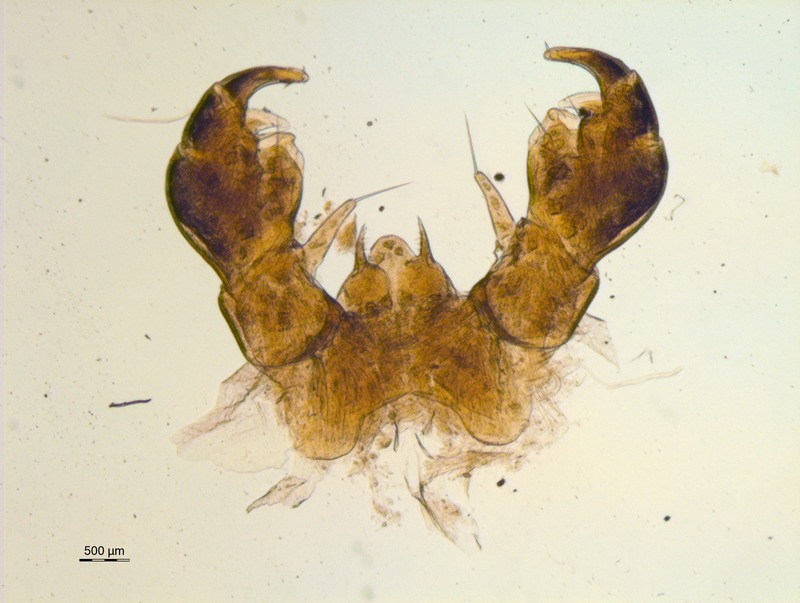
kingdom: Animalia
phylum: Arthropoda
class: Diplopoda
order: Glomerida
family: Glomeridae
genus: Glomeris
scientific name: Glomeris ligurica
